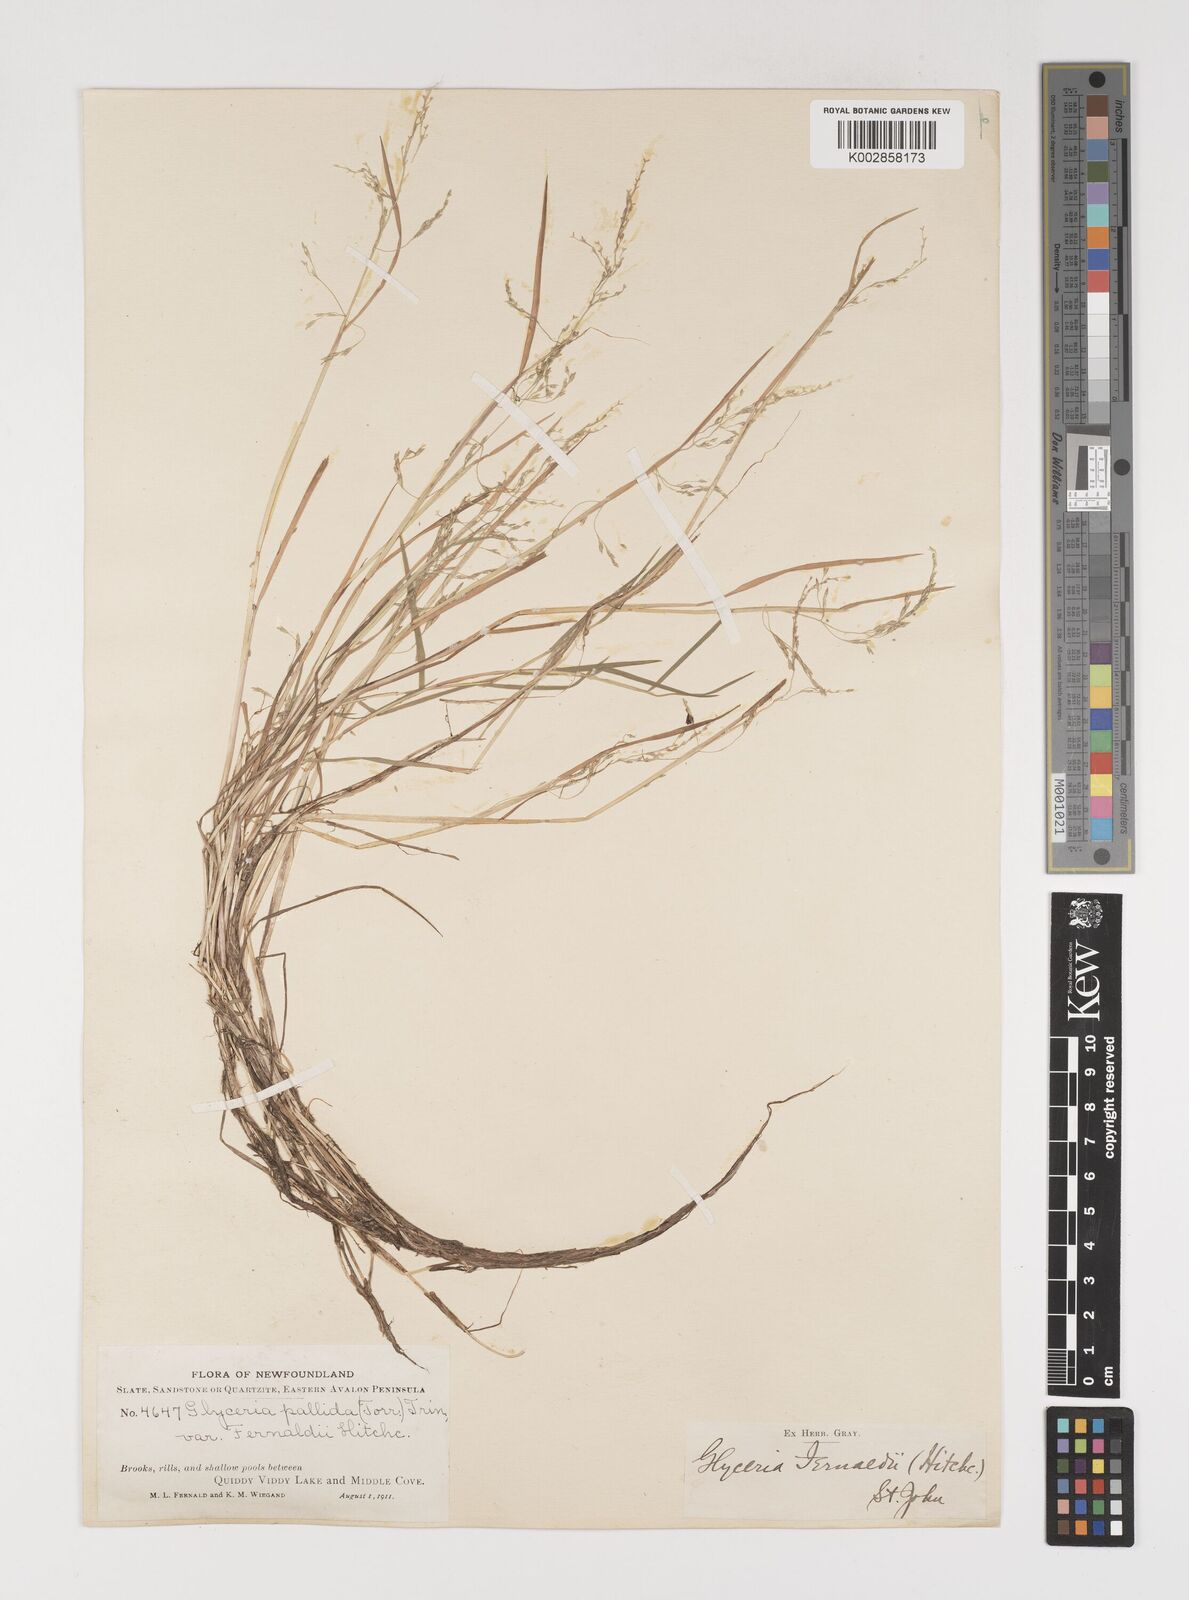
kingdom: Plantae
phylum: Tracheophyta
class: Liliopsida
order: Poales
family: Poaceae
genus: Torreyochloa
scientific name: Torreyochloa pallida
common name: Pale false mannagrass
